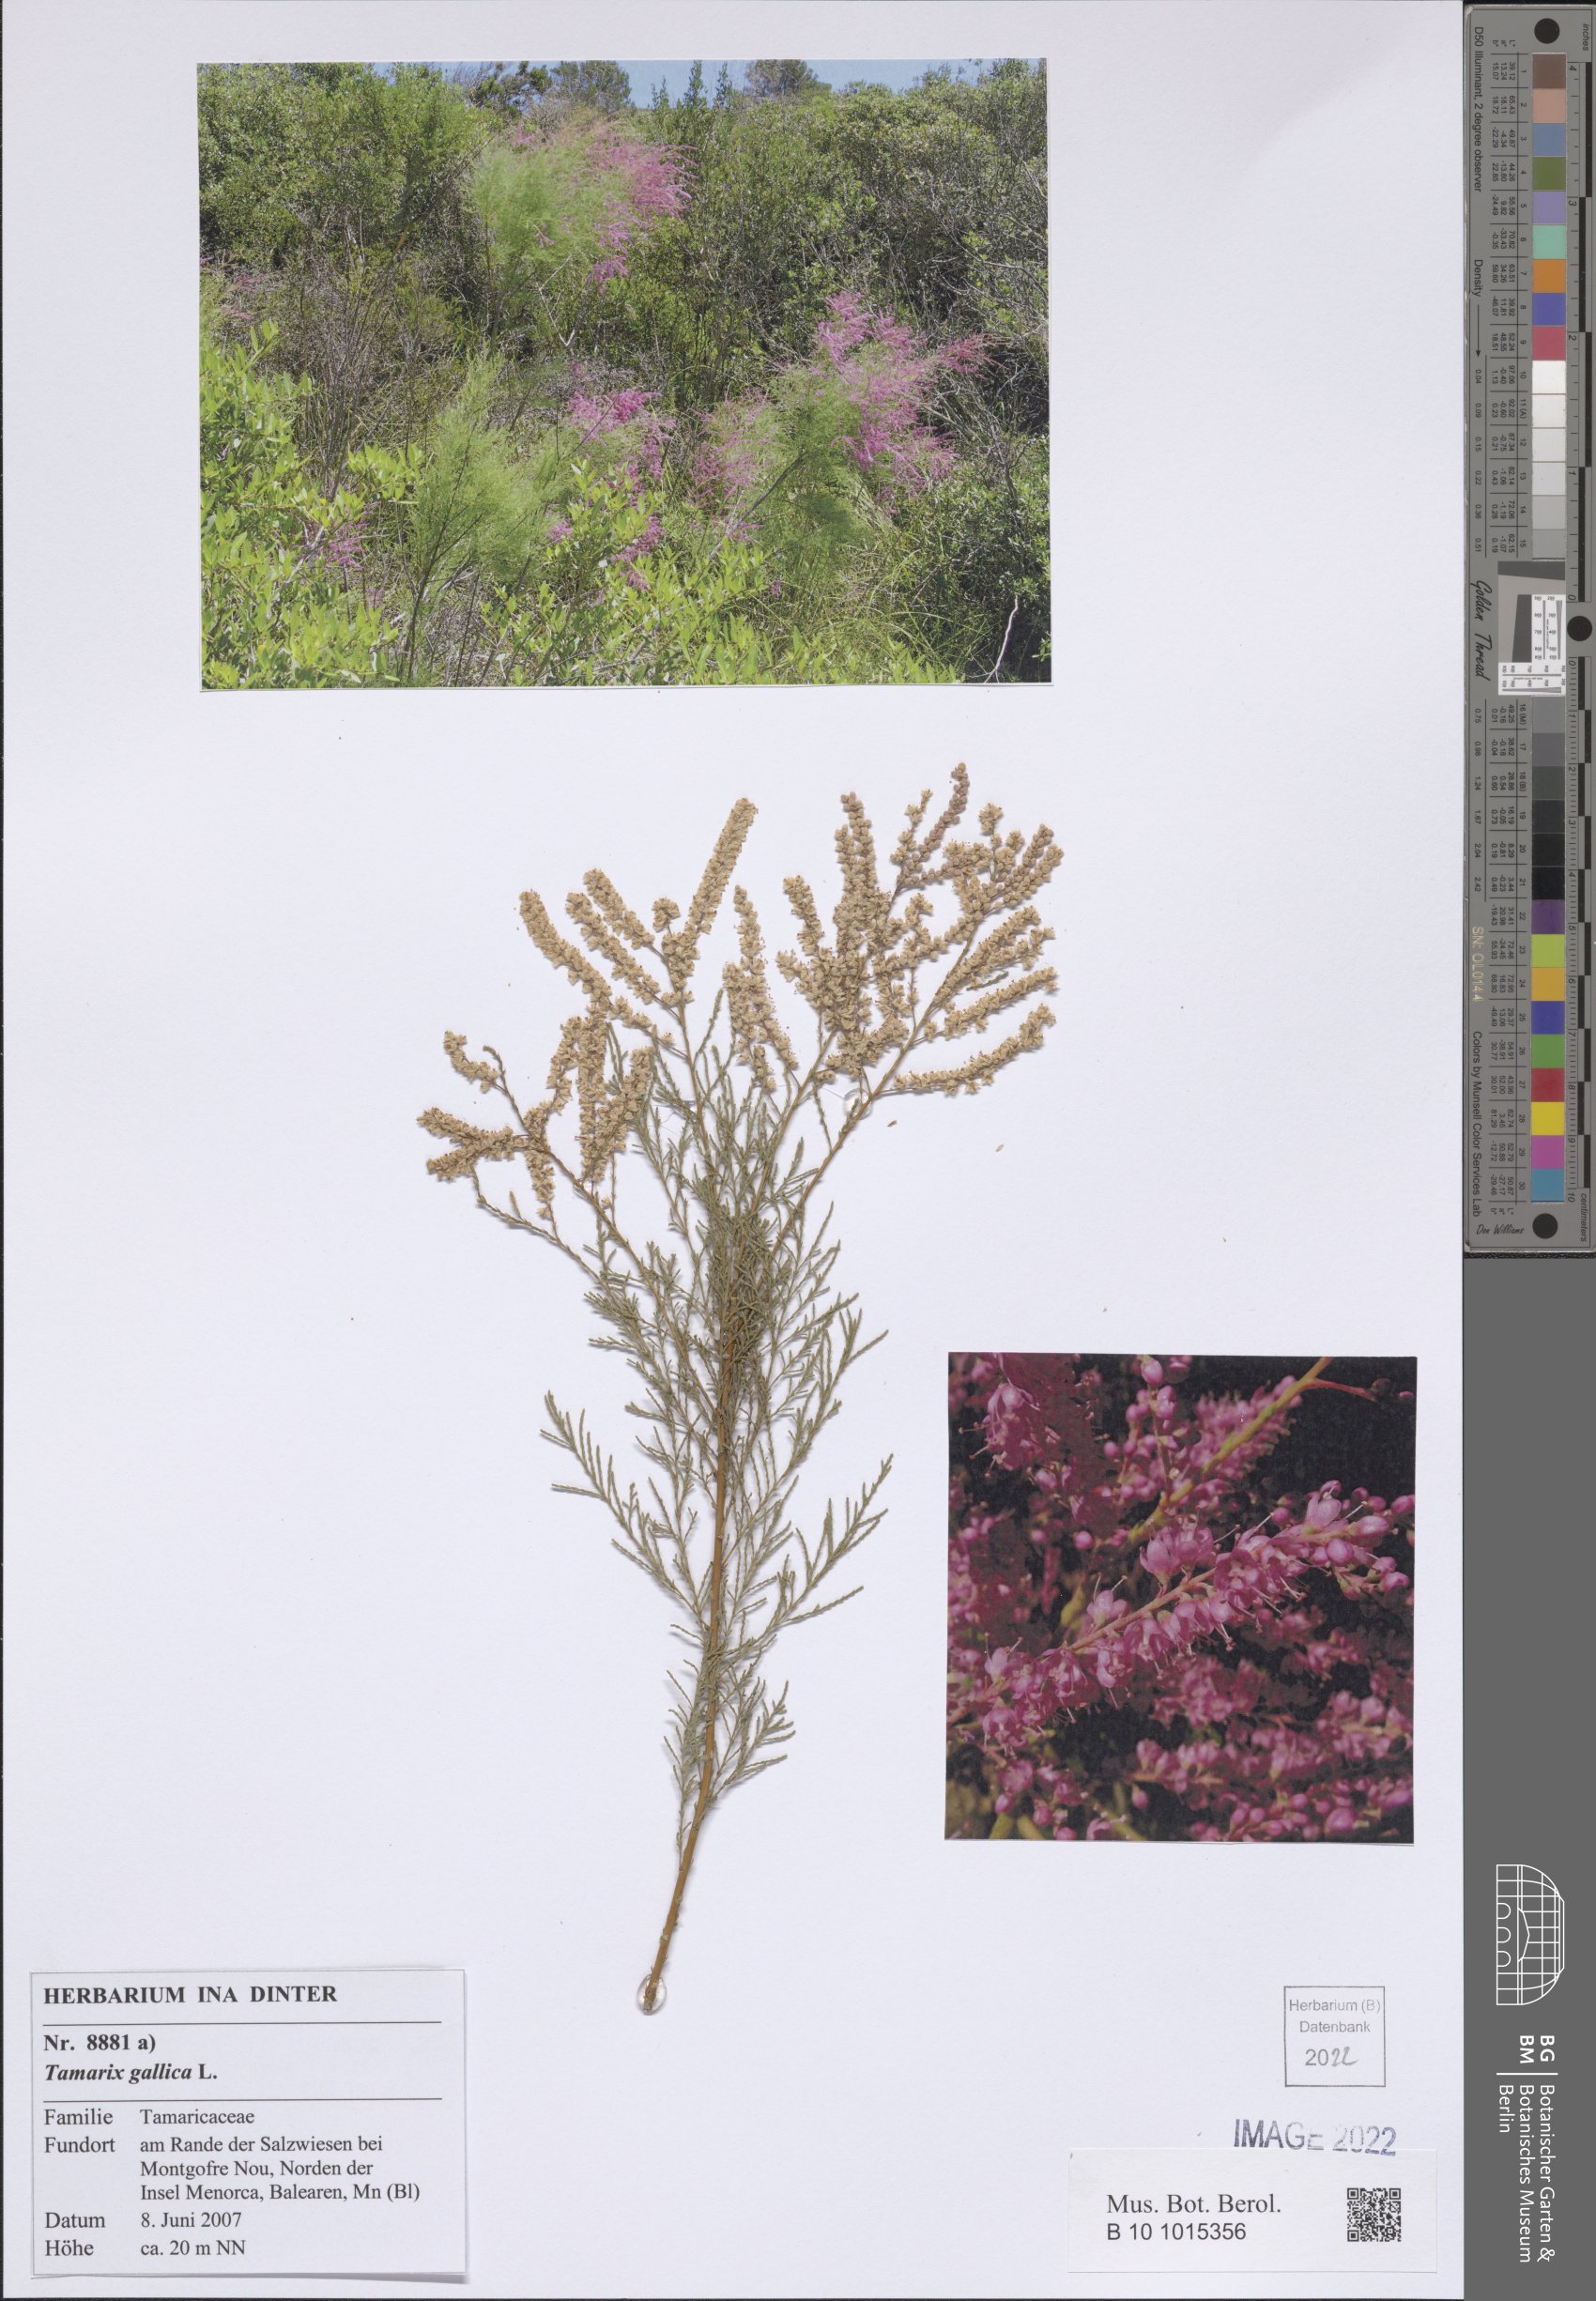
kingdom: Plantae
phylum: Tracheophyta
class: Magnoliopsida
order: Caryophyllales
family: Tamaricaceae
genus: Tamarix
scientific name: Tamarix gallica
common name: Tamarisk
